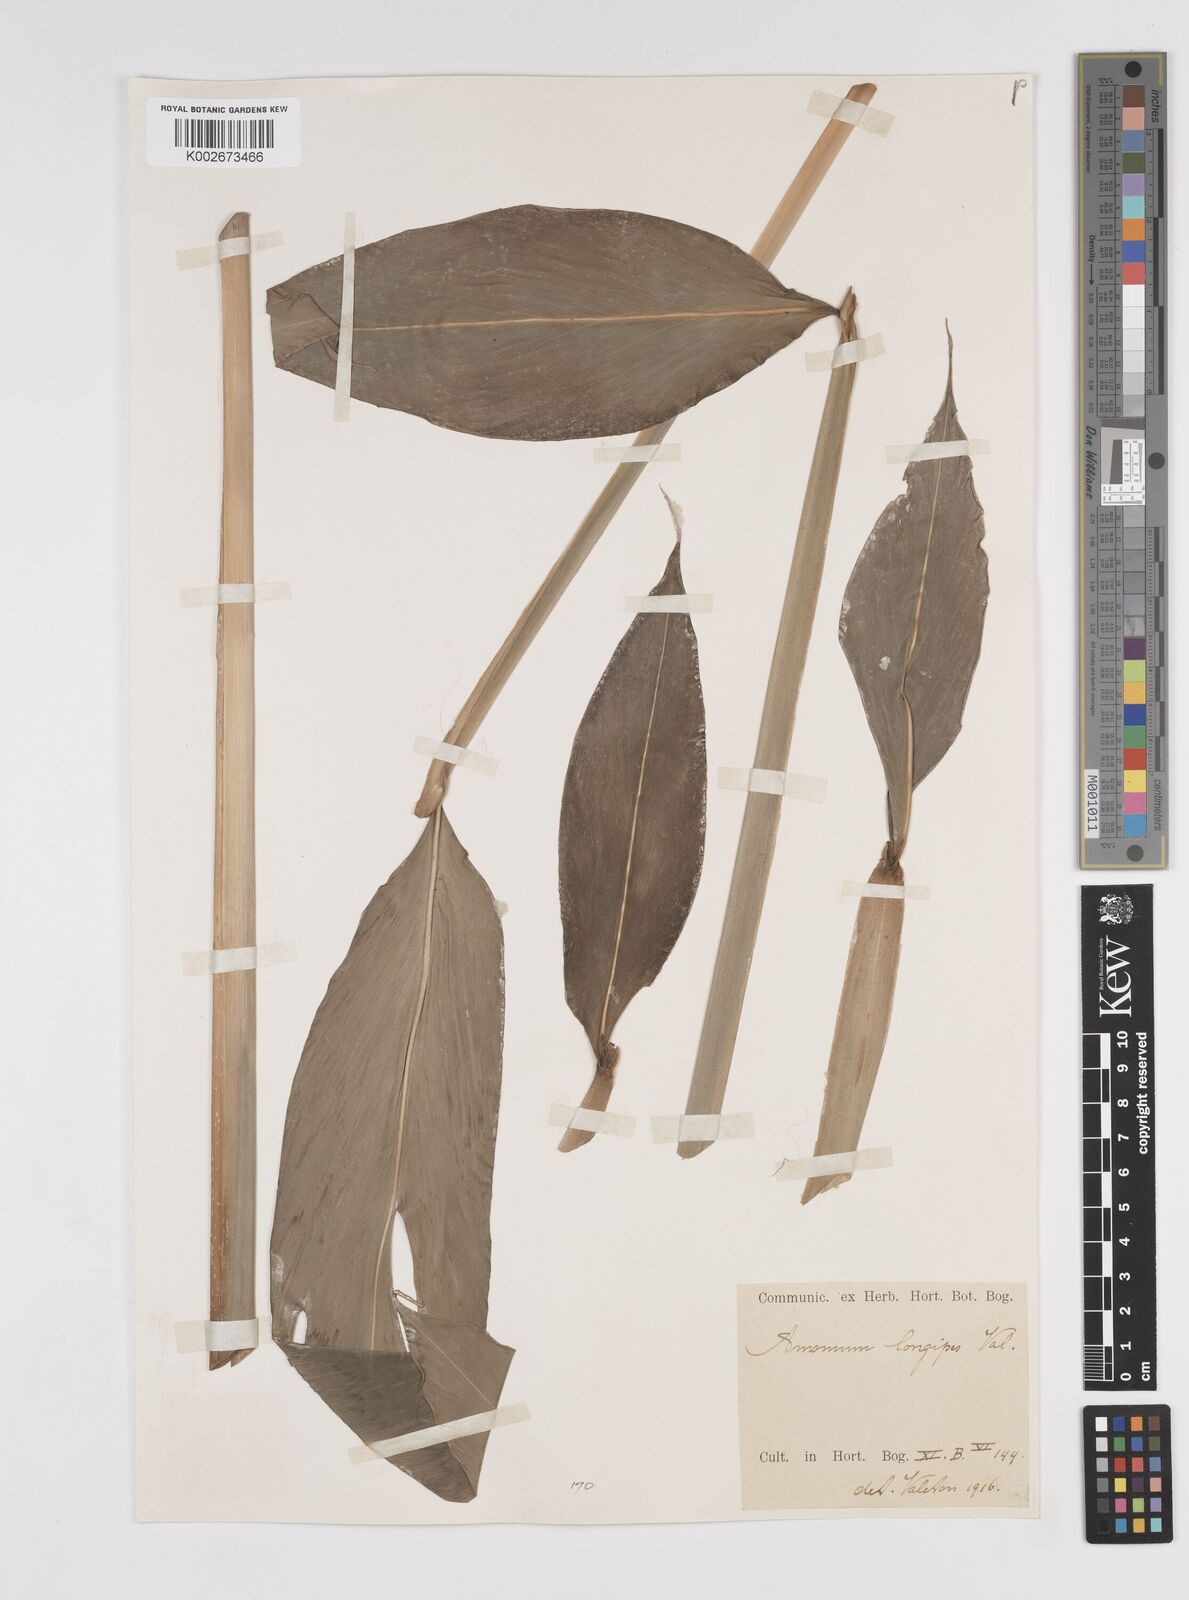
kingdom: Plantae
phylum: Tracheophyta
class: Liliopsida
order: Zingiberales
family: Zingiberaceae
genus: Amomum
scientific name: Amomum longipes
